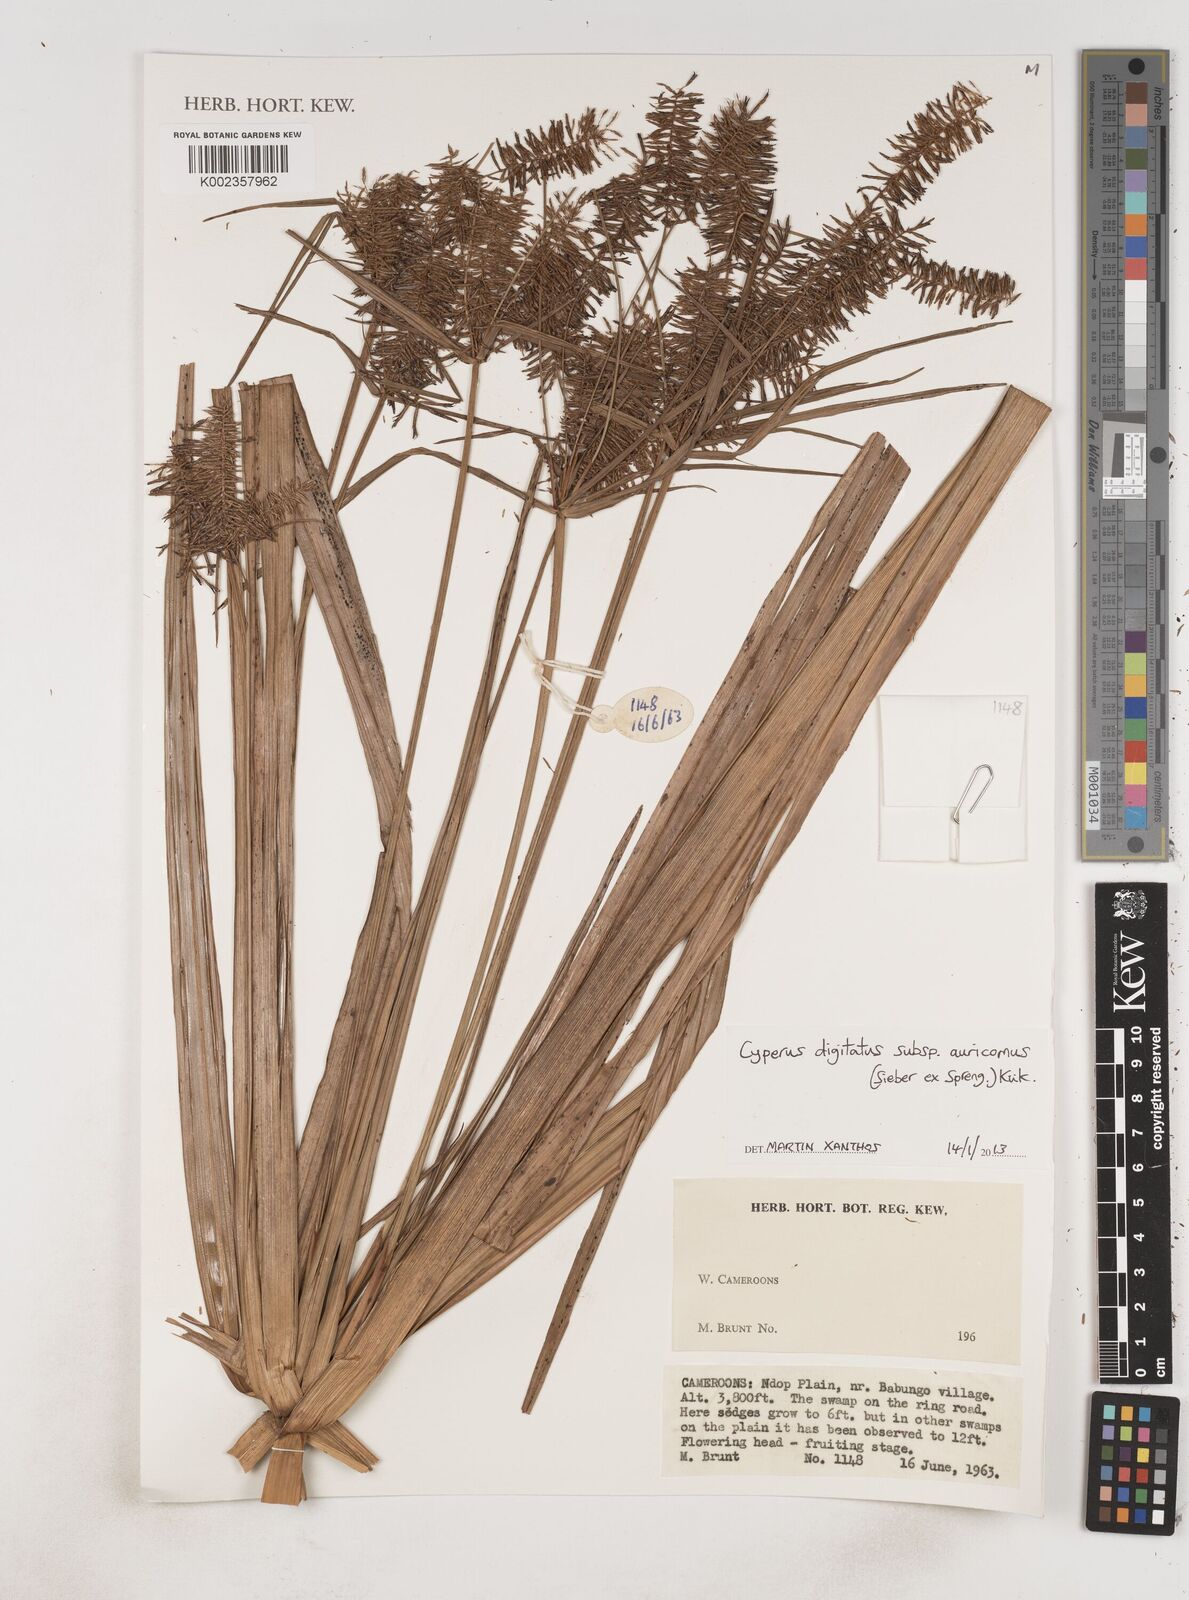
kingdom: Plantae
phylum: Tracheophyta
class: Liliopsida
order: Poales
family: Cyperaceae
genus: Cyperus
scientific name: Cyperus digitatus
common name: Finger flatsedge
